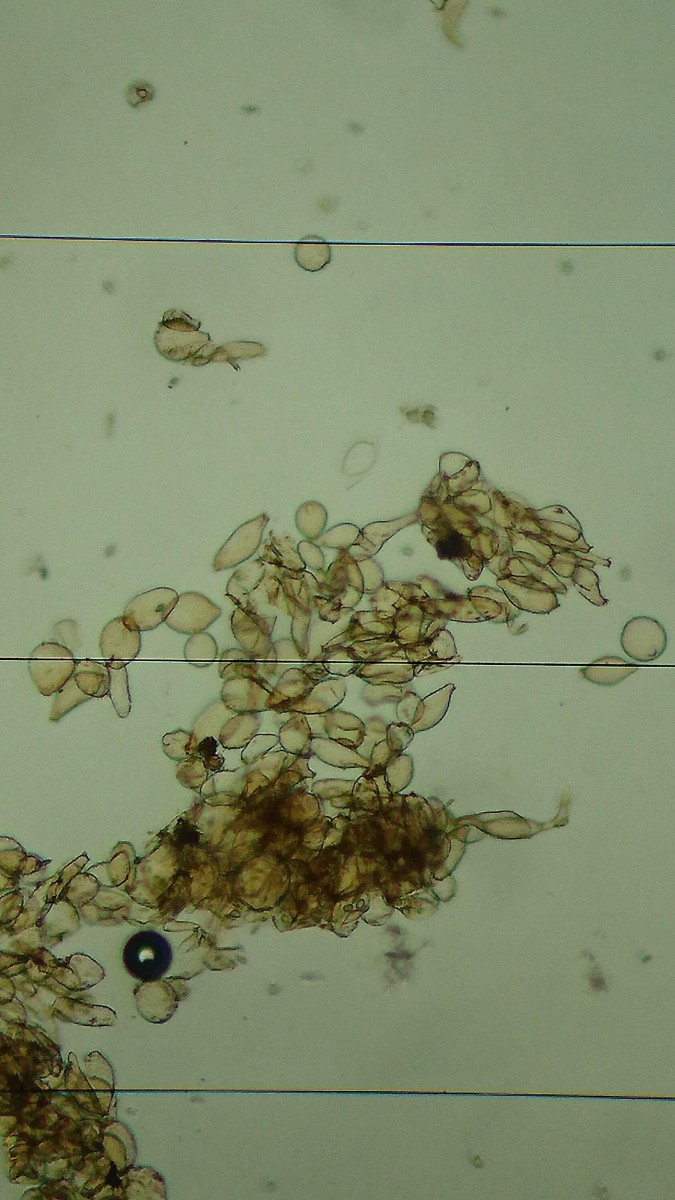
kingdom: Fungi
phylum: Basidiomycota
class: Agaricomycetes
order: Agaricales
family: Tubariaceae
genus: Flammulaster
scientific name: Flammulaster muricatus
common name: pigget grynskælhat
